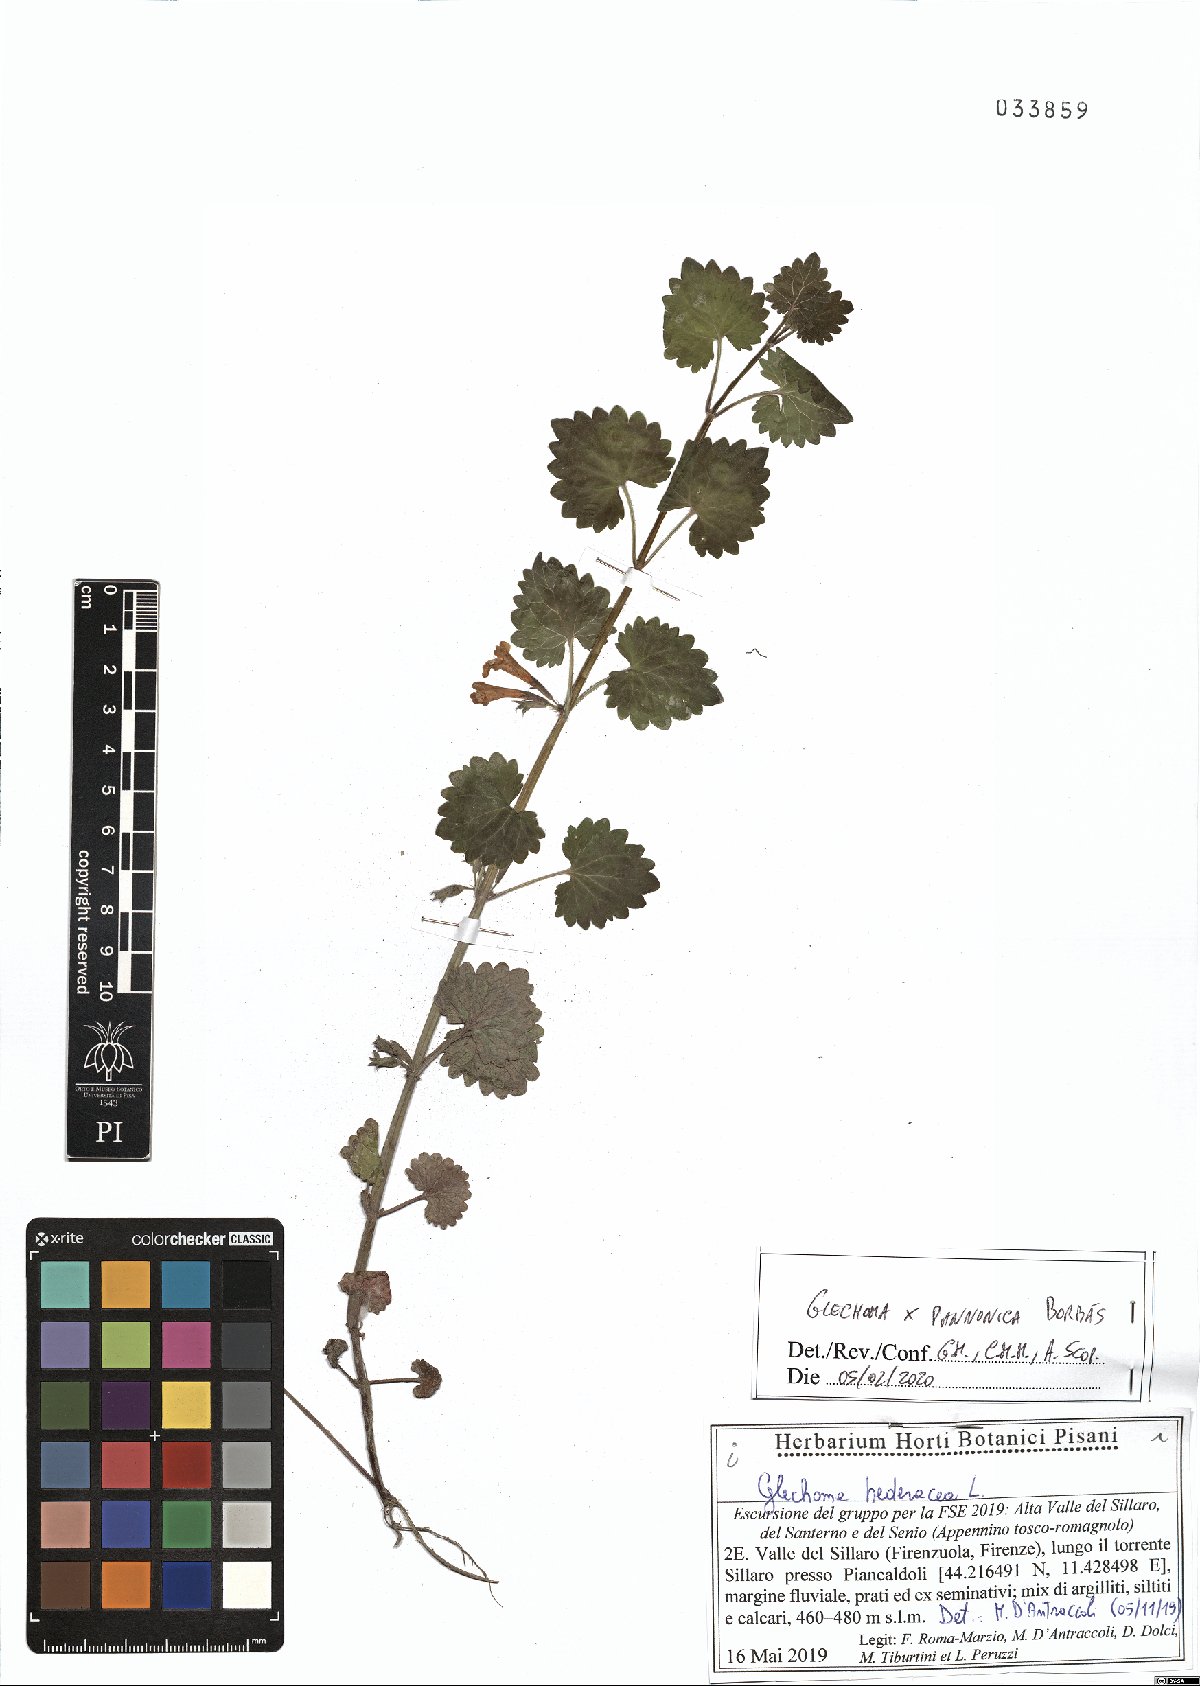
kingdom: Plantae
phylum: Tracheophyta
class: Magnoliopsida
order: Lamiales
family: Lamiaceae
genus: Glechoma
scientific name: Glechoma pannonica
